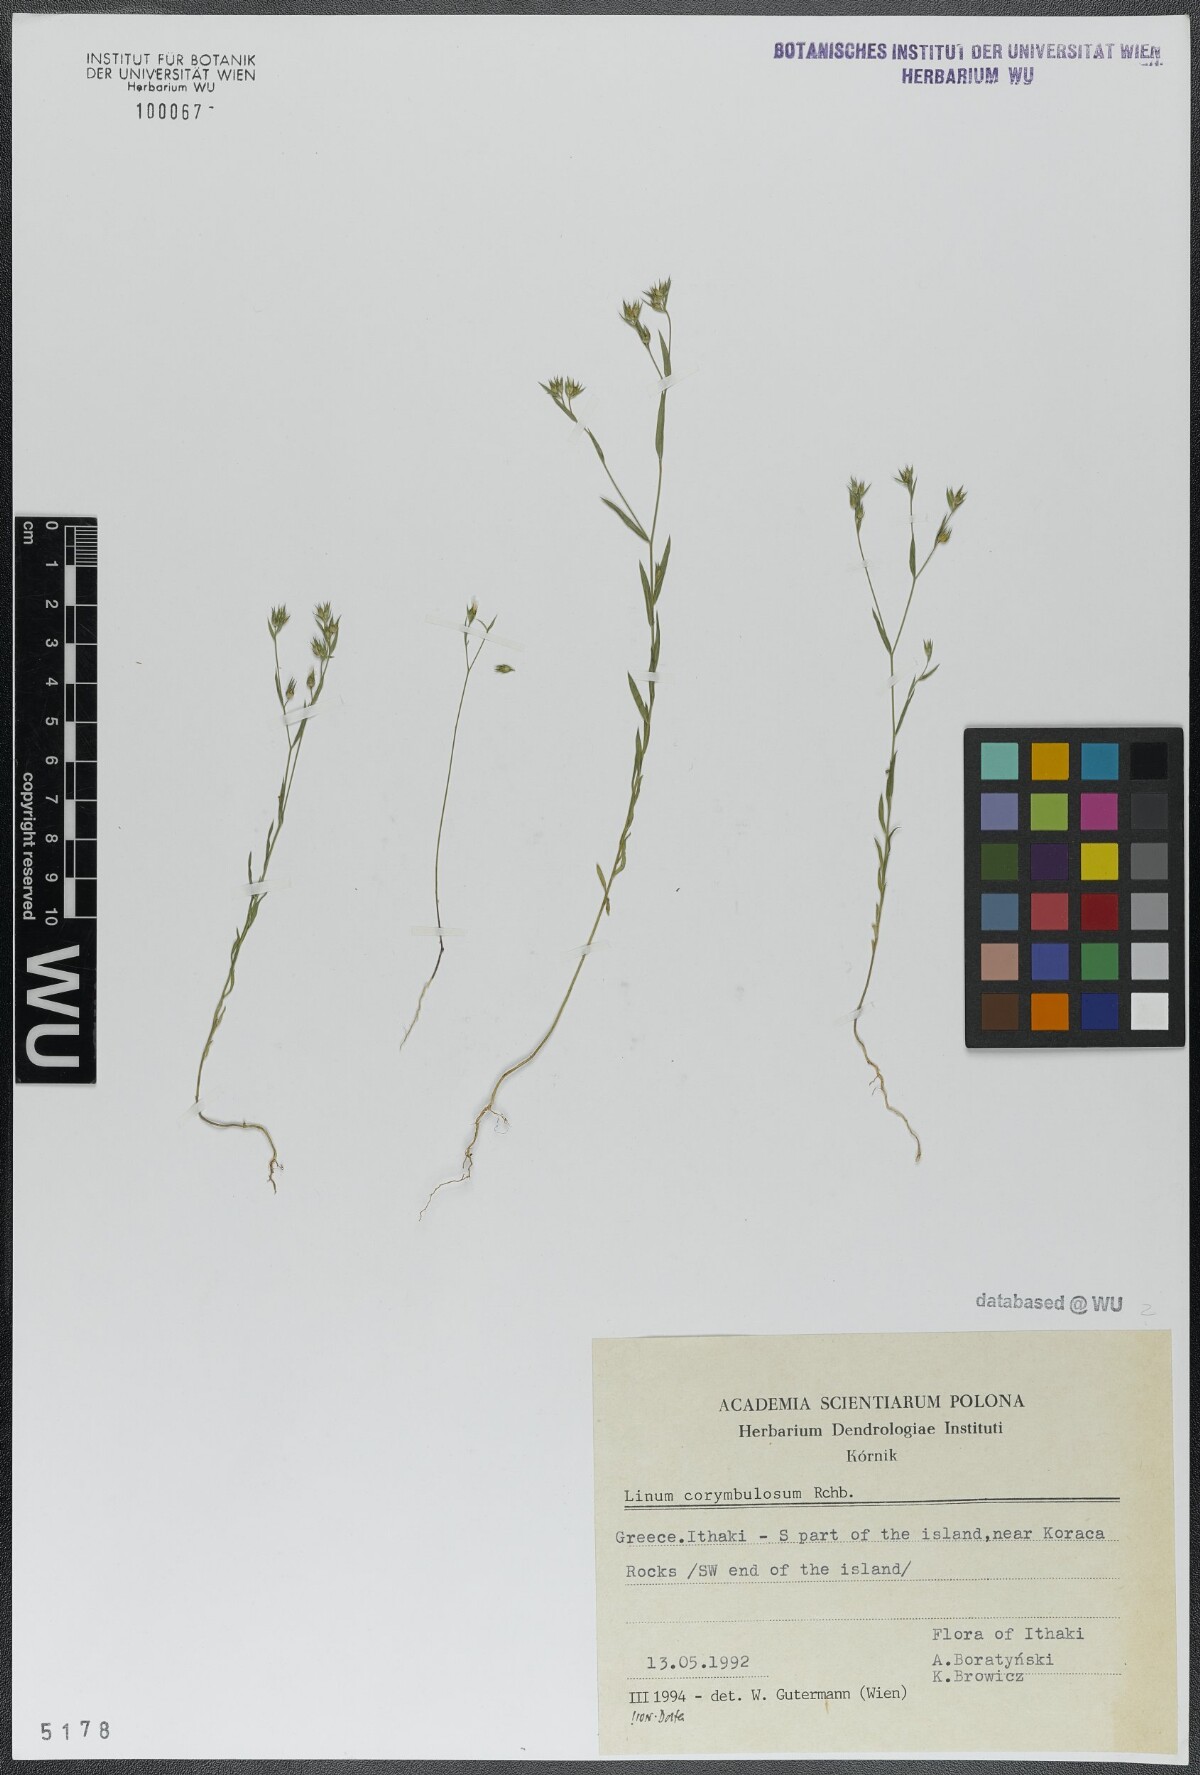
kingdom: Plantae
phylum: Tracheophyta
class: Magnoliopsida
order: Malpighiales
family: Linaceae
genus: Linum
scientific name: Linum corymbulosum
